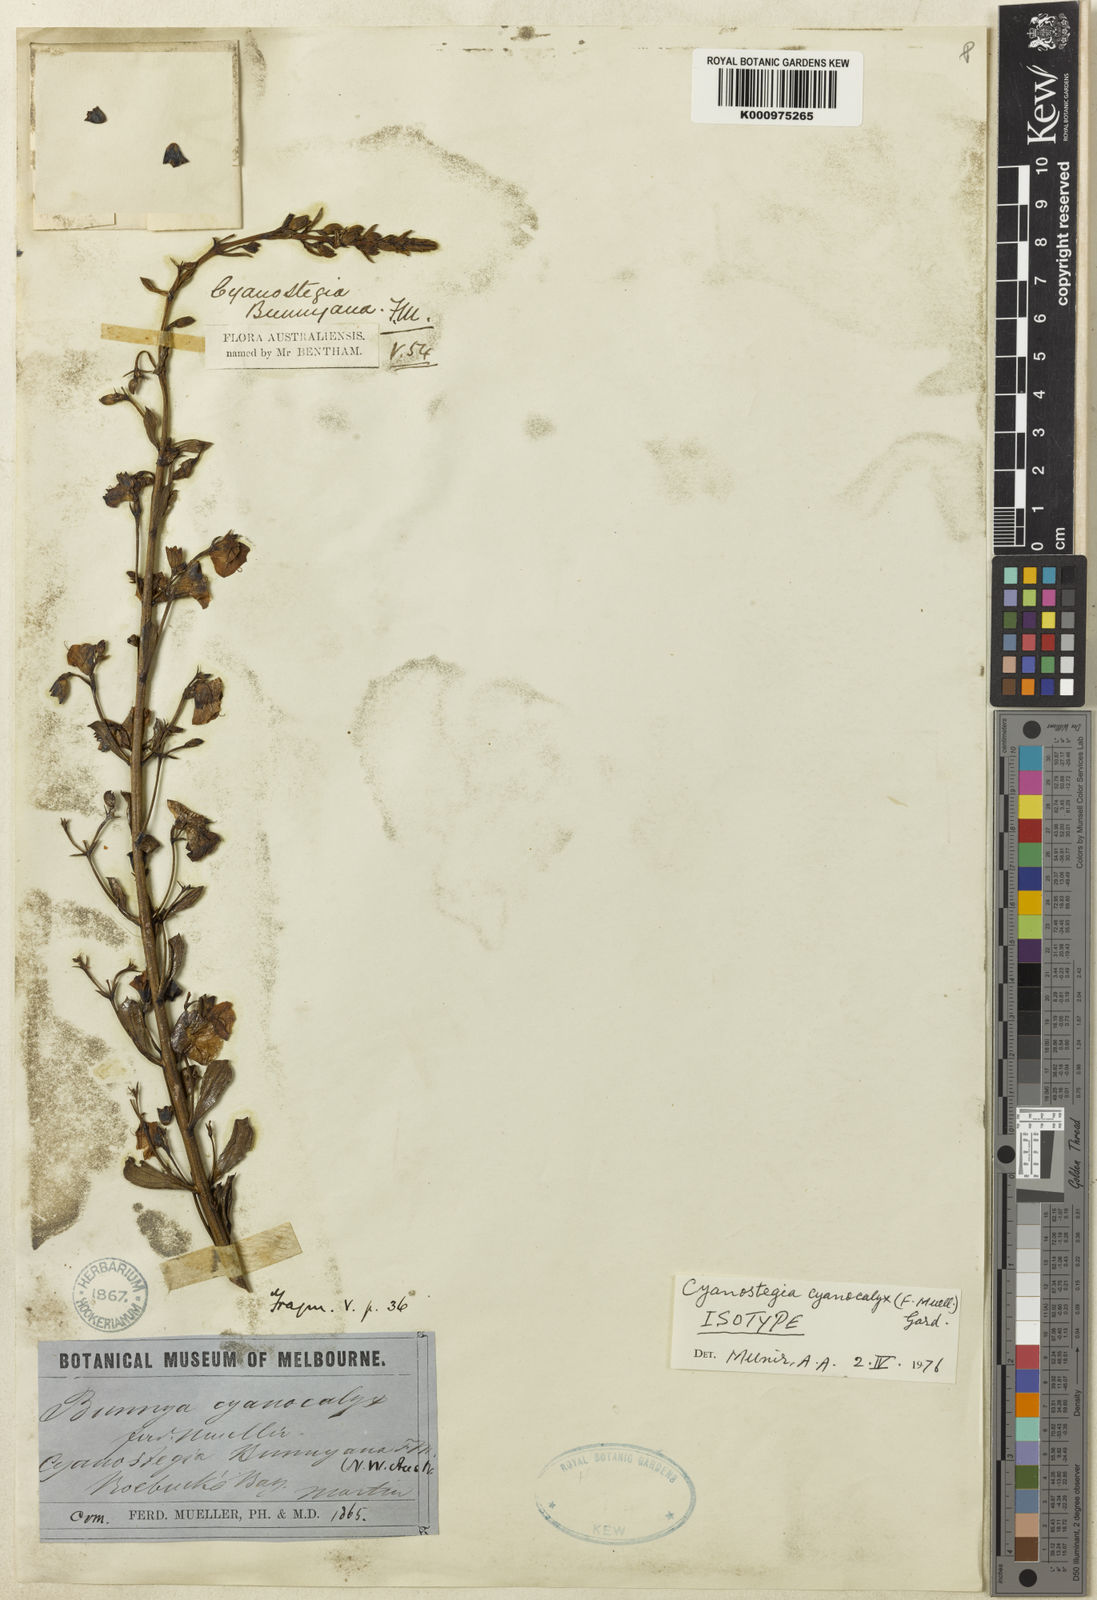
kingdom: Plantae
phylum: Tracheophyta
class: Magnoliopsida
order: Lamiales
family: Lamiaceae
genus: Cyanostegia
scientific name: Cyanostegia cyanocalyx
